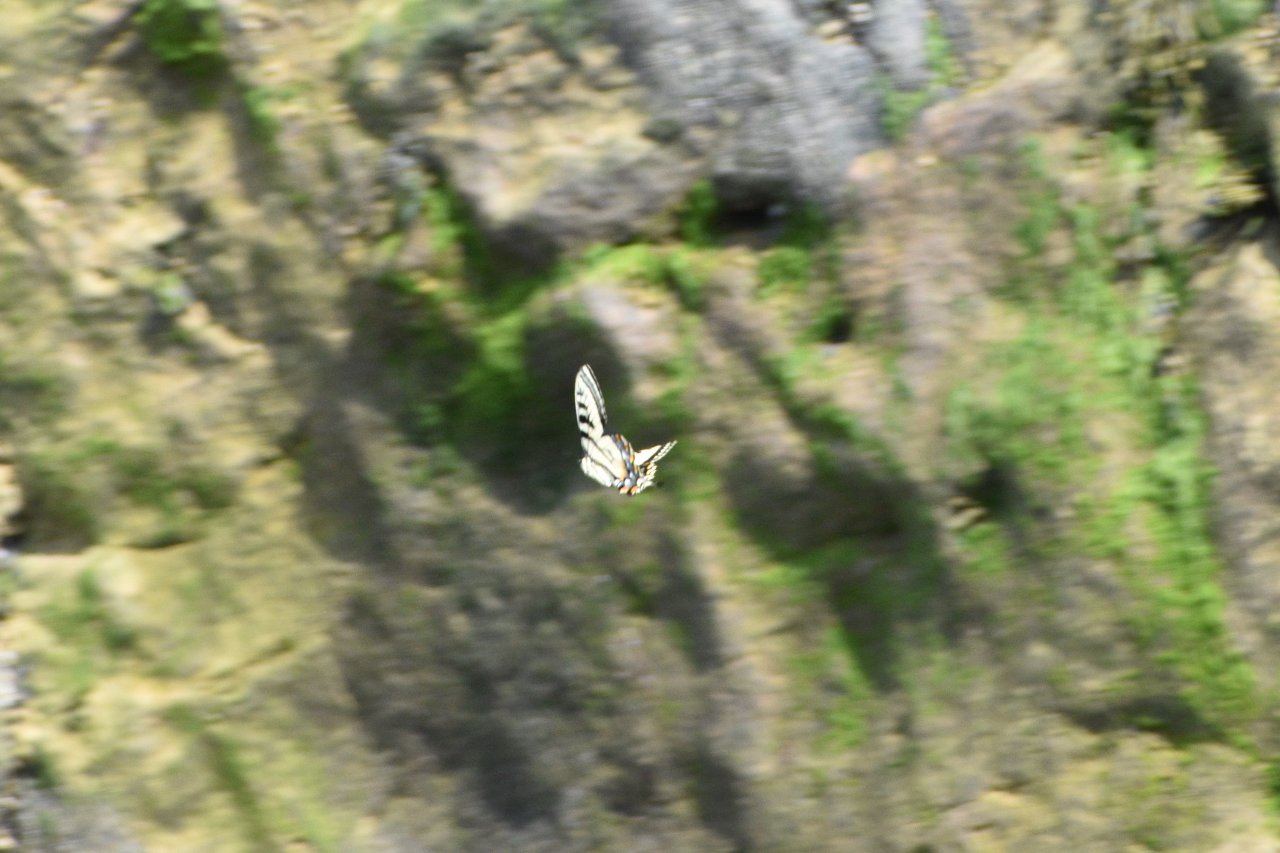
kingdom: Animalia
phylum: Arthropoda
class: Insecta
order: Lepidoptera
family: Papilionidae
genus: Pterourus
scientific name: Pterourus canadensis
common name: Canadian Tiger Swallowtail
